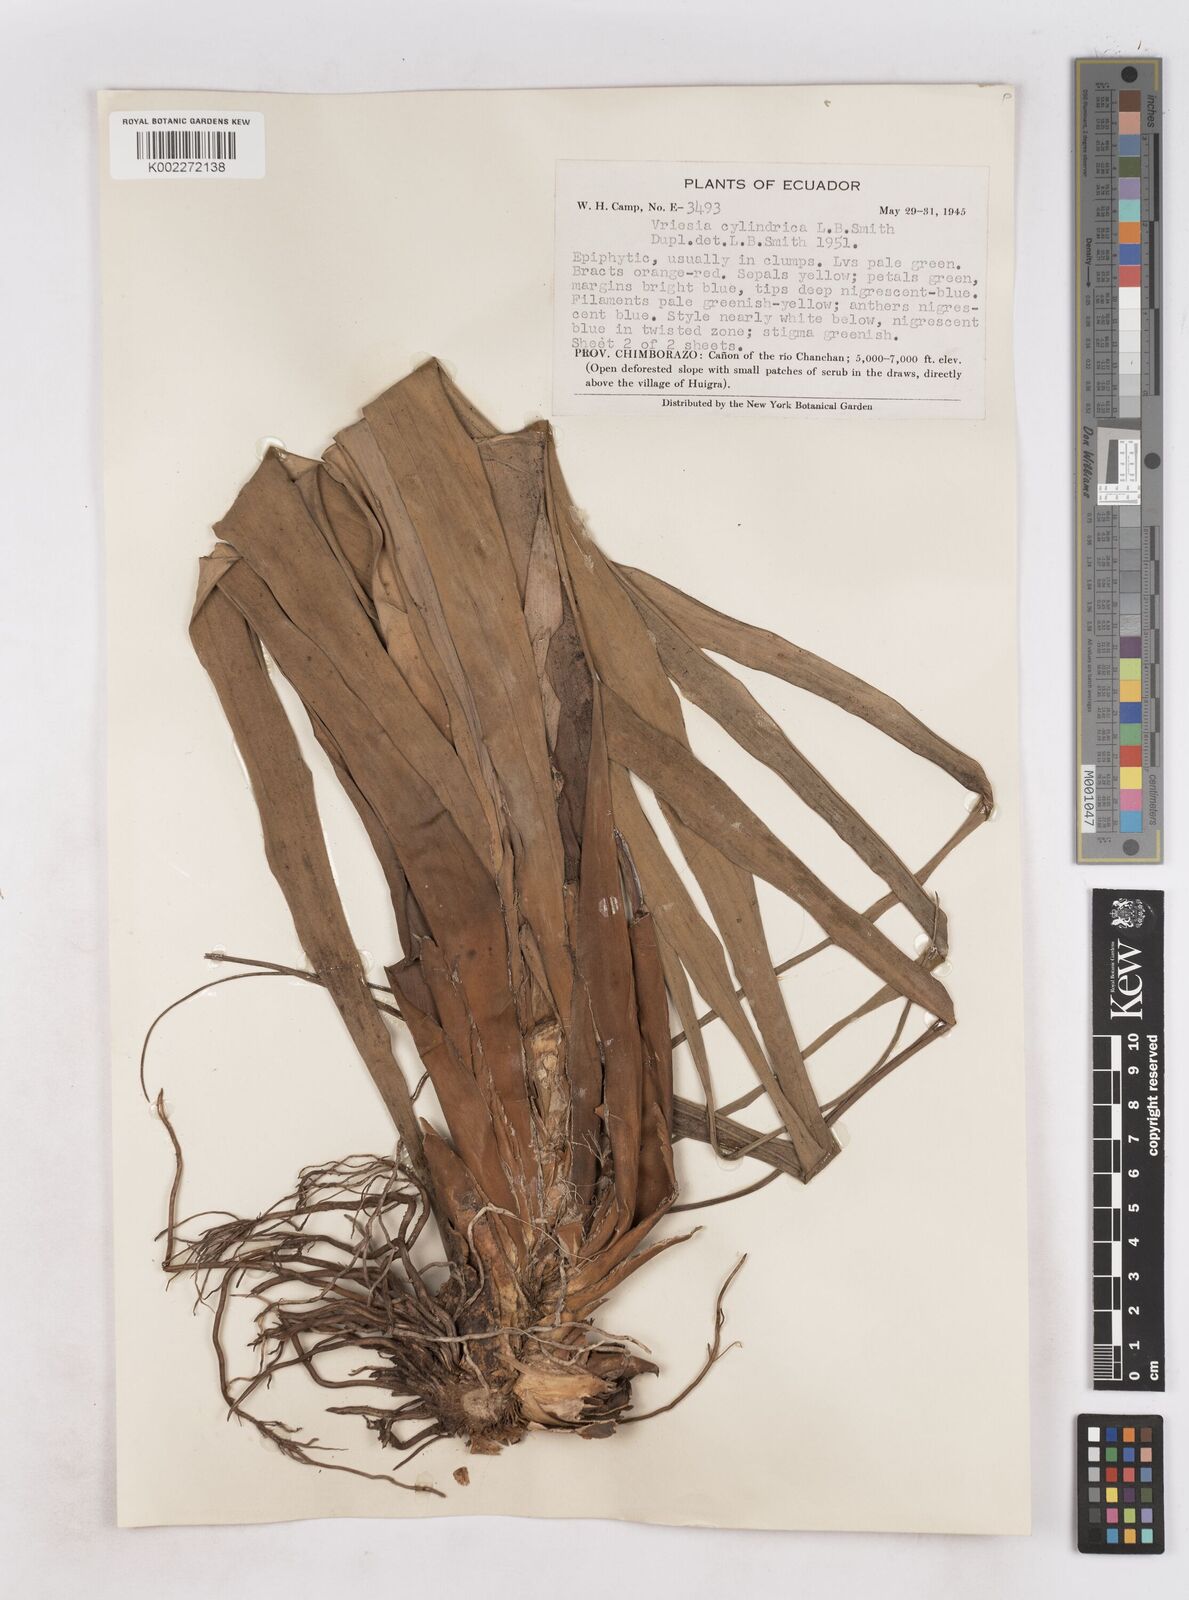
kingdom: Plantae
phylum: Tracheophyta
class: Liliopsida
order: Poales
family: Bromeliaceae
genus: Vriesea
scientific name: Vriesea cylindrica
